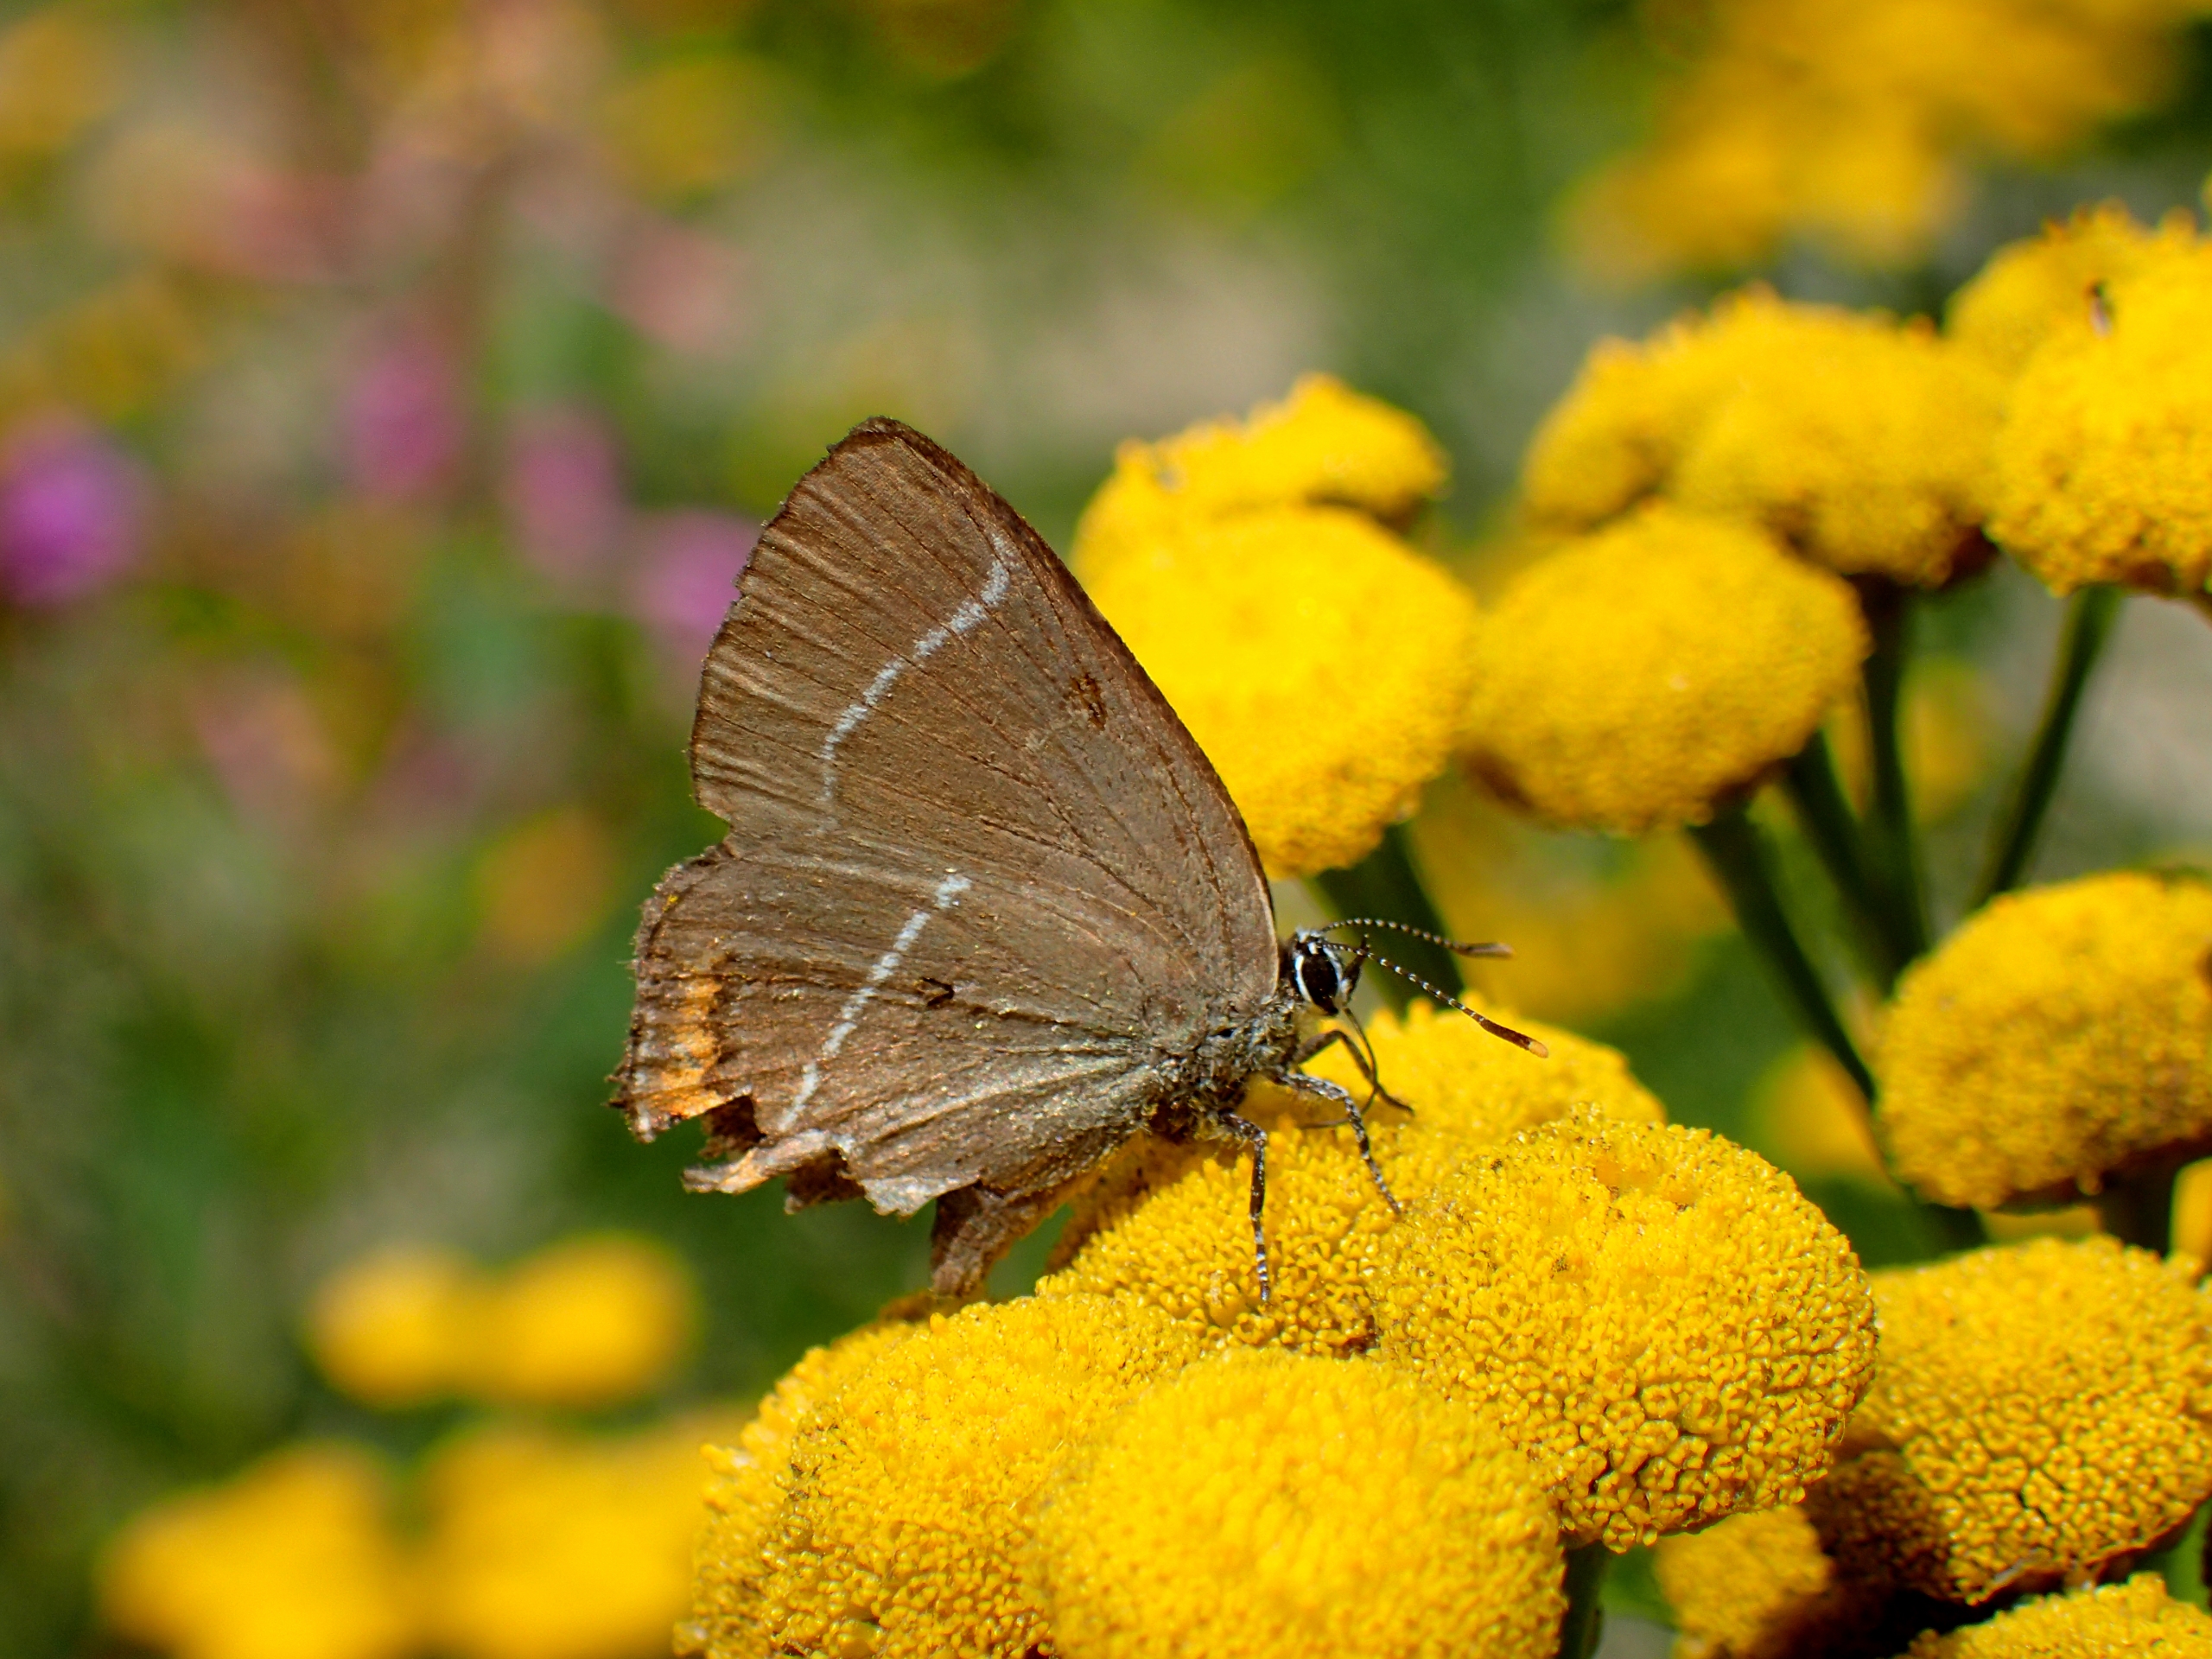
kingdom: Animalia
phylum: Arthropoda
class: Insecta
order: Lepidoptera
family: Lycaenidae
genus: Satyrium
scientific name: Satyrium w-album
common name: Det hvide W
